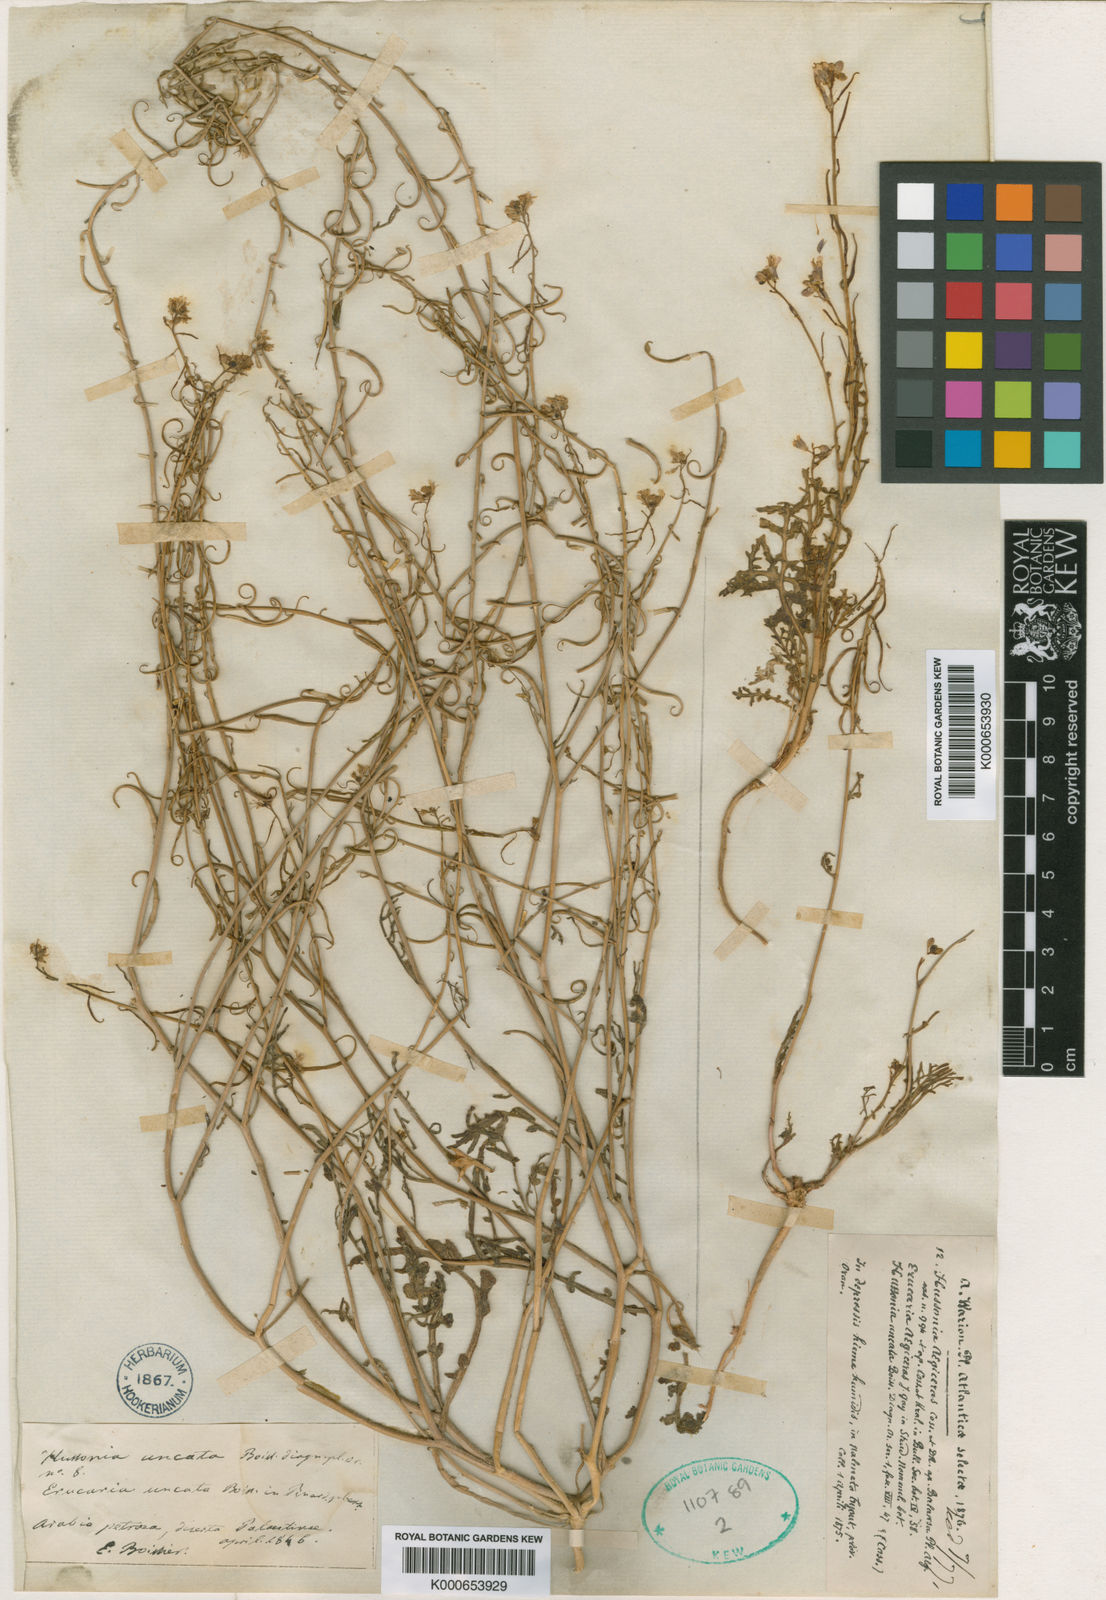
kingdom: Plantae
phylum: Tracheophyta
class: Magnoliopsida
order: Brassicales
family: Brassicaceae
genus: Erucaria
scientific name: Erucaria uncata
